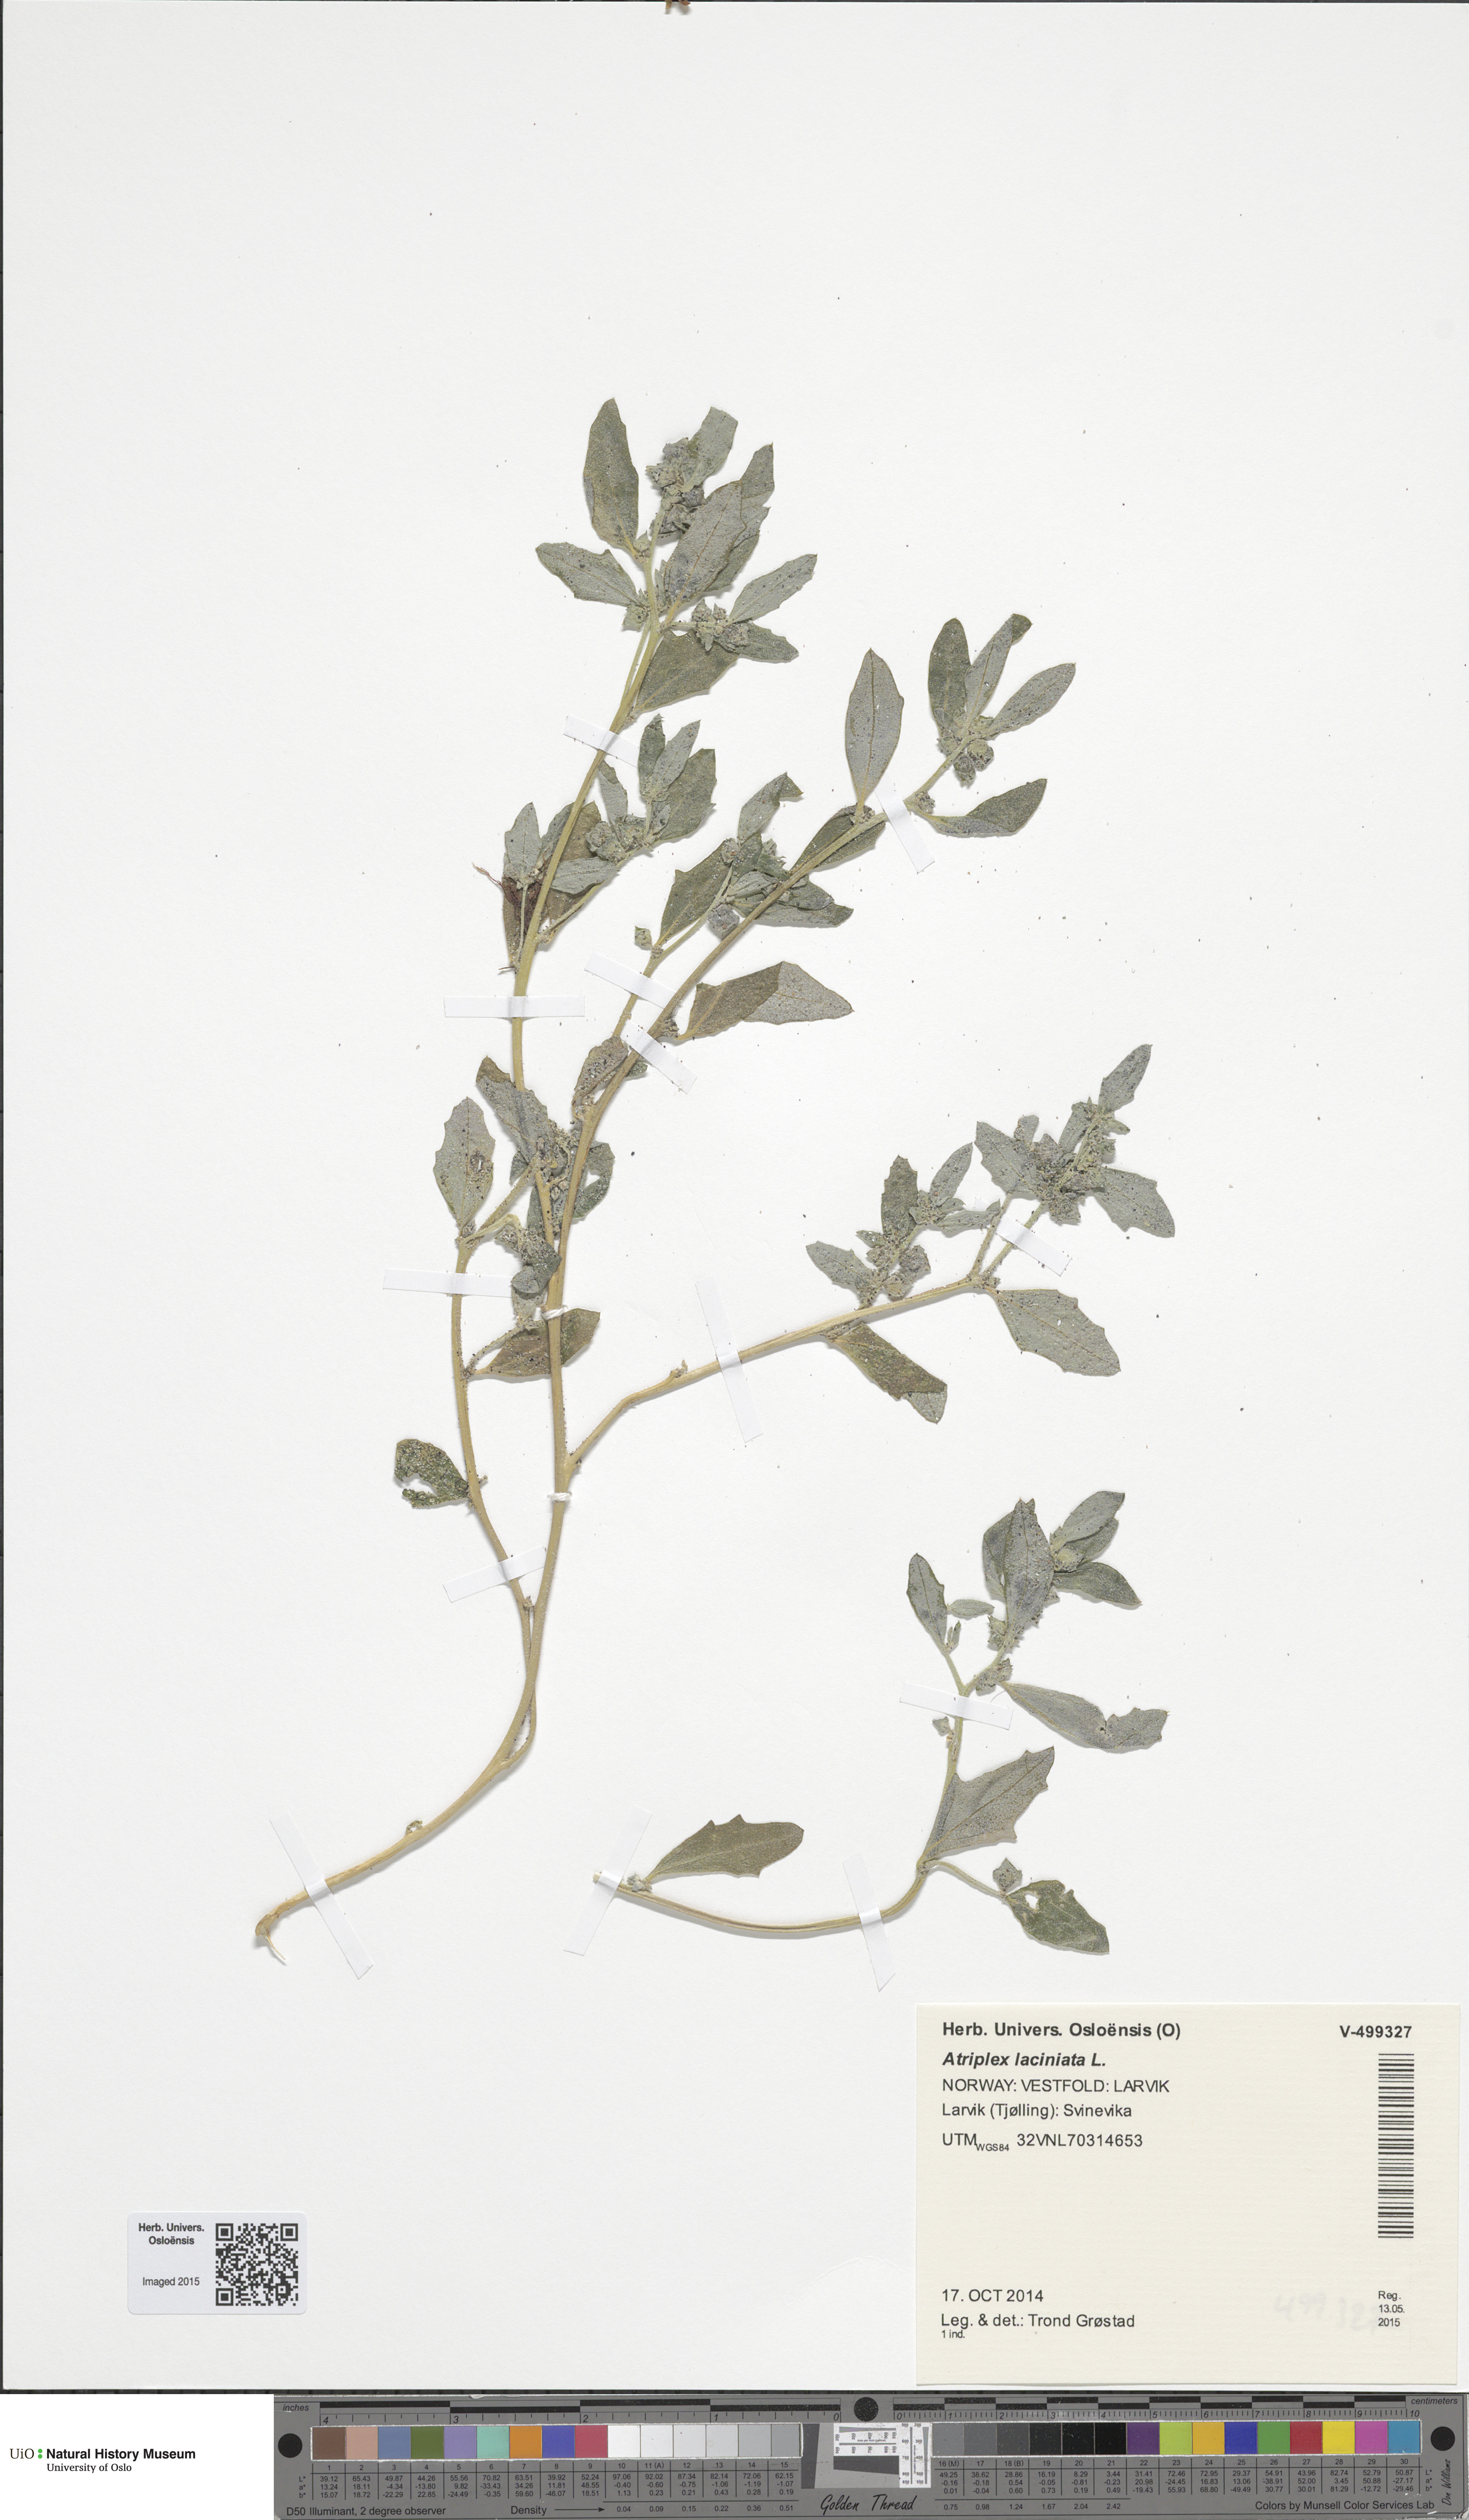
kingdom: Plantae
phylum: Tracheophyta
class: Magnoliopsida
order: Caryophyllales
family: Amaranthaceae
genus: Atriplex
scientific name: Atriplex laciniata
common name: Frosted orache
